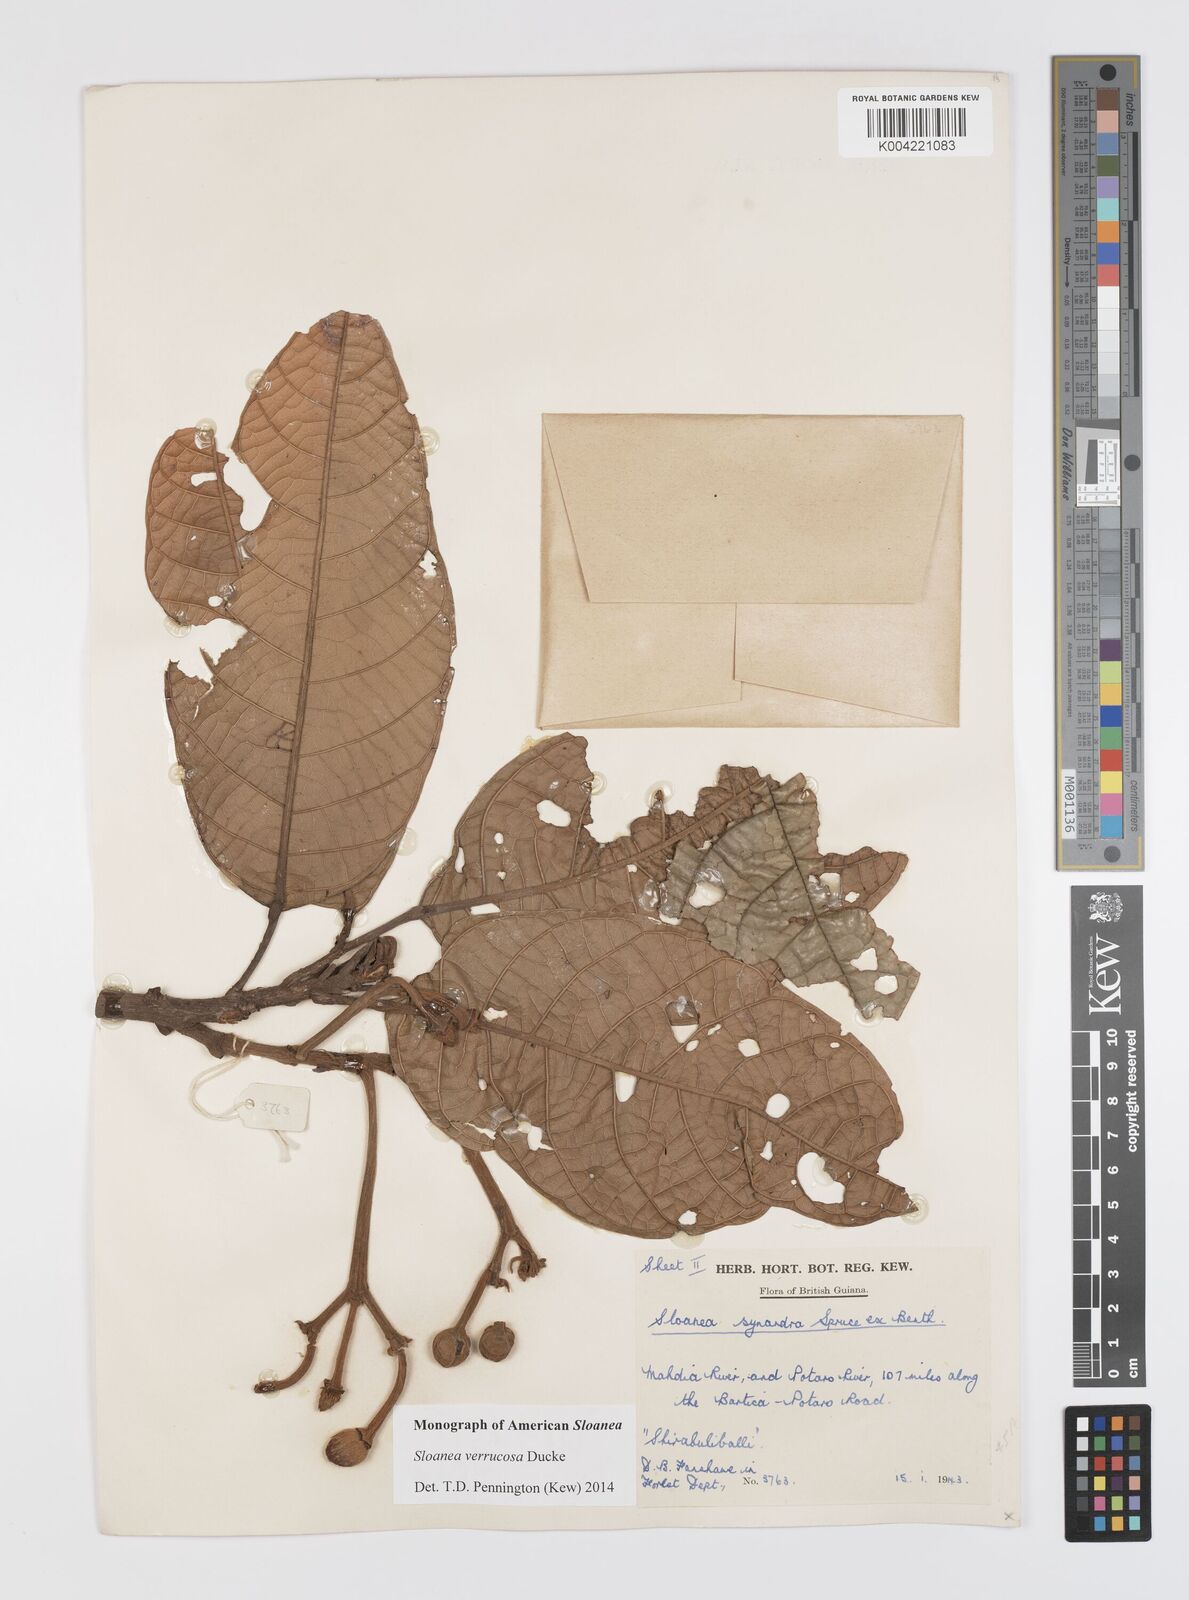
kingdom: Plantae
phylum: Tracheophyta
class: Magnoliopsida
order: Oxalidales
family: Elaeocarpaceae
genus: Sloanea
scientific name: Sloanea schomburgkii
